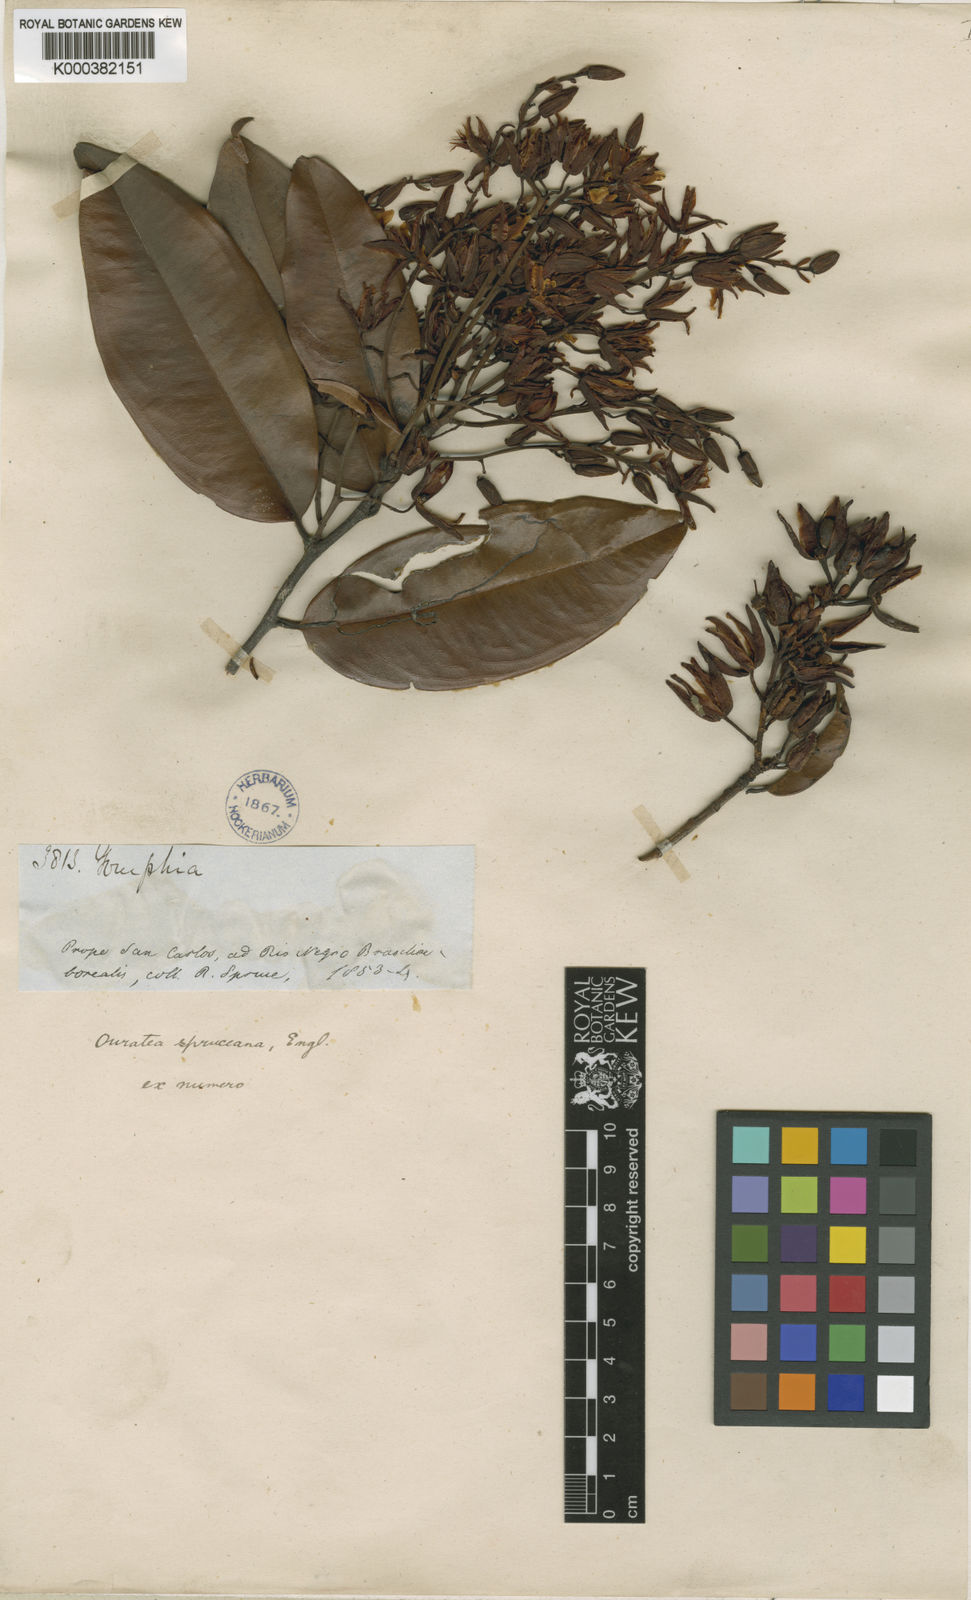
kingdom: Plantae
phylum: Tracheophyta
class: Magnoliopsida
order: Malpighiales
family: Ochnaceae
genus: Ouratea
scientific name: Ouratea spruceana
